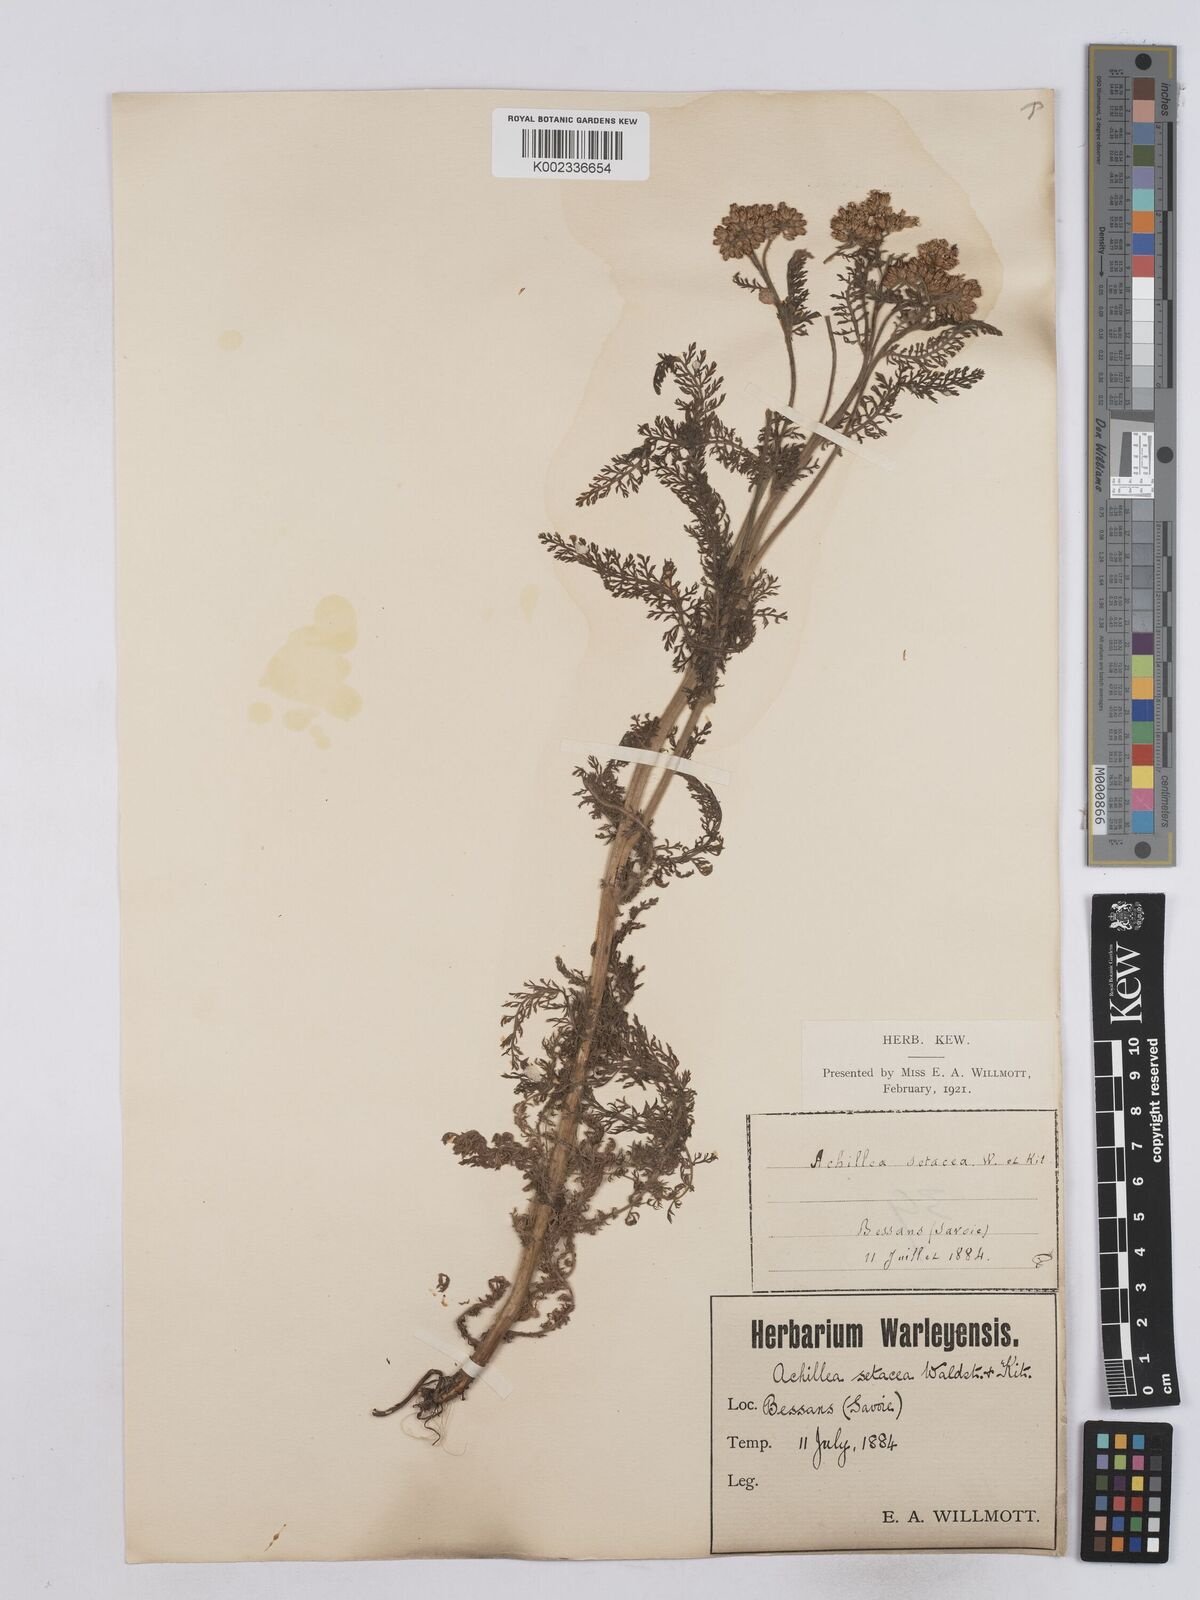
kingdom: Plantae
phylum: Tracheophyta
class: Magnoliopsida
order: Asterales
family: Asteraceae
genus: Achillea
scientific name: Achillea setacea
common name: Bristly yarrow
